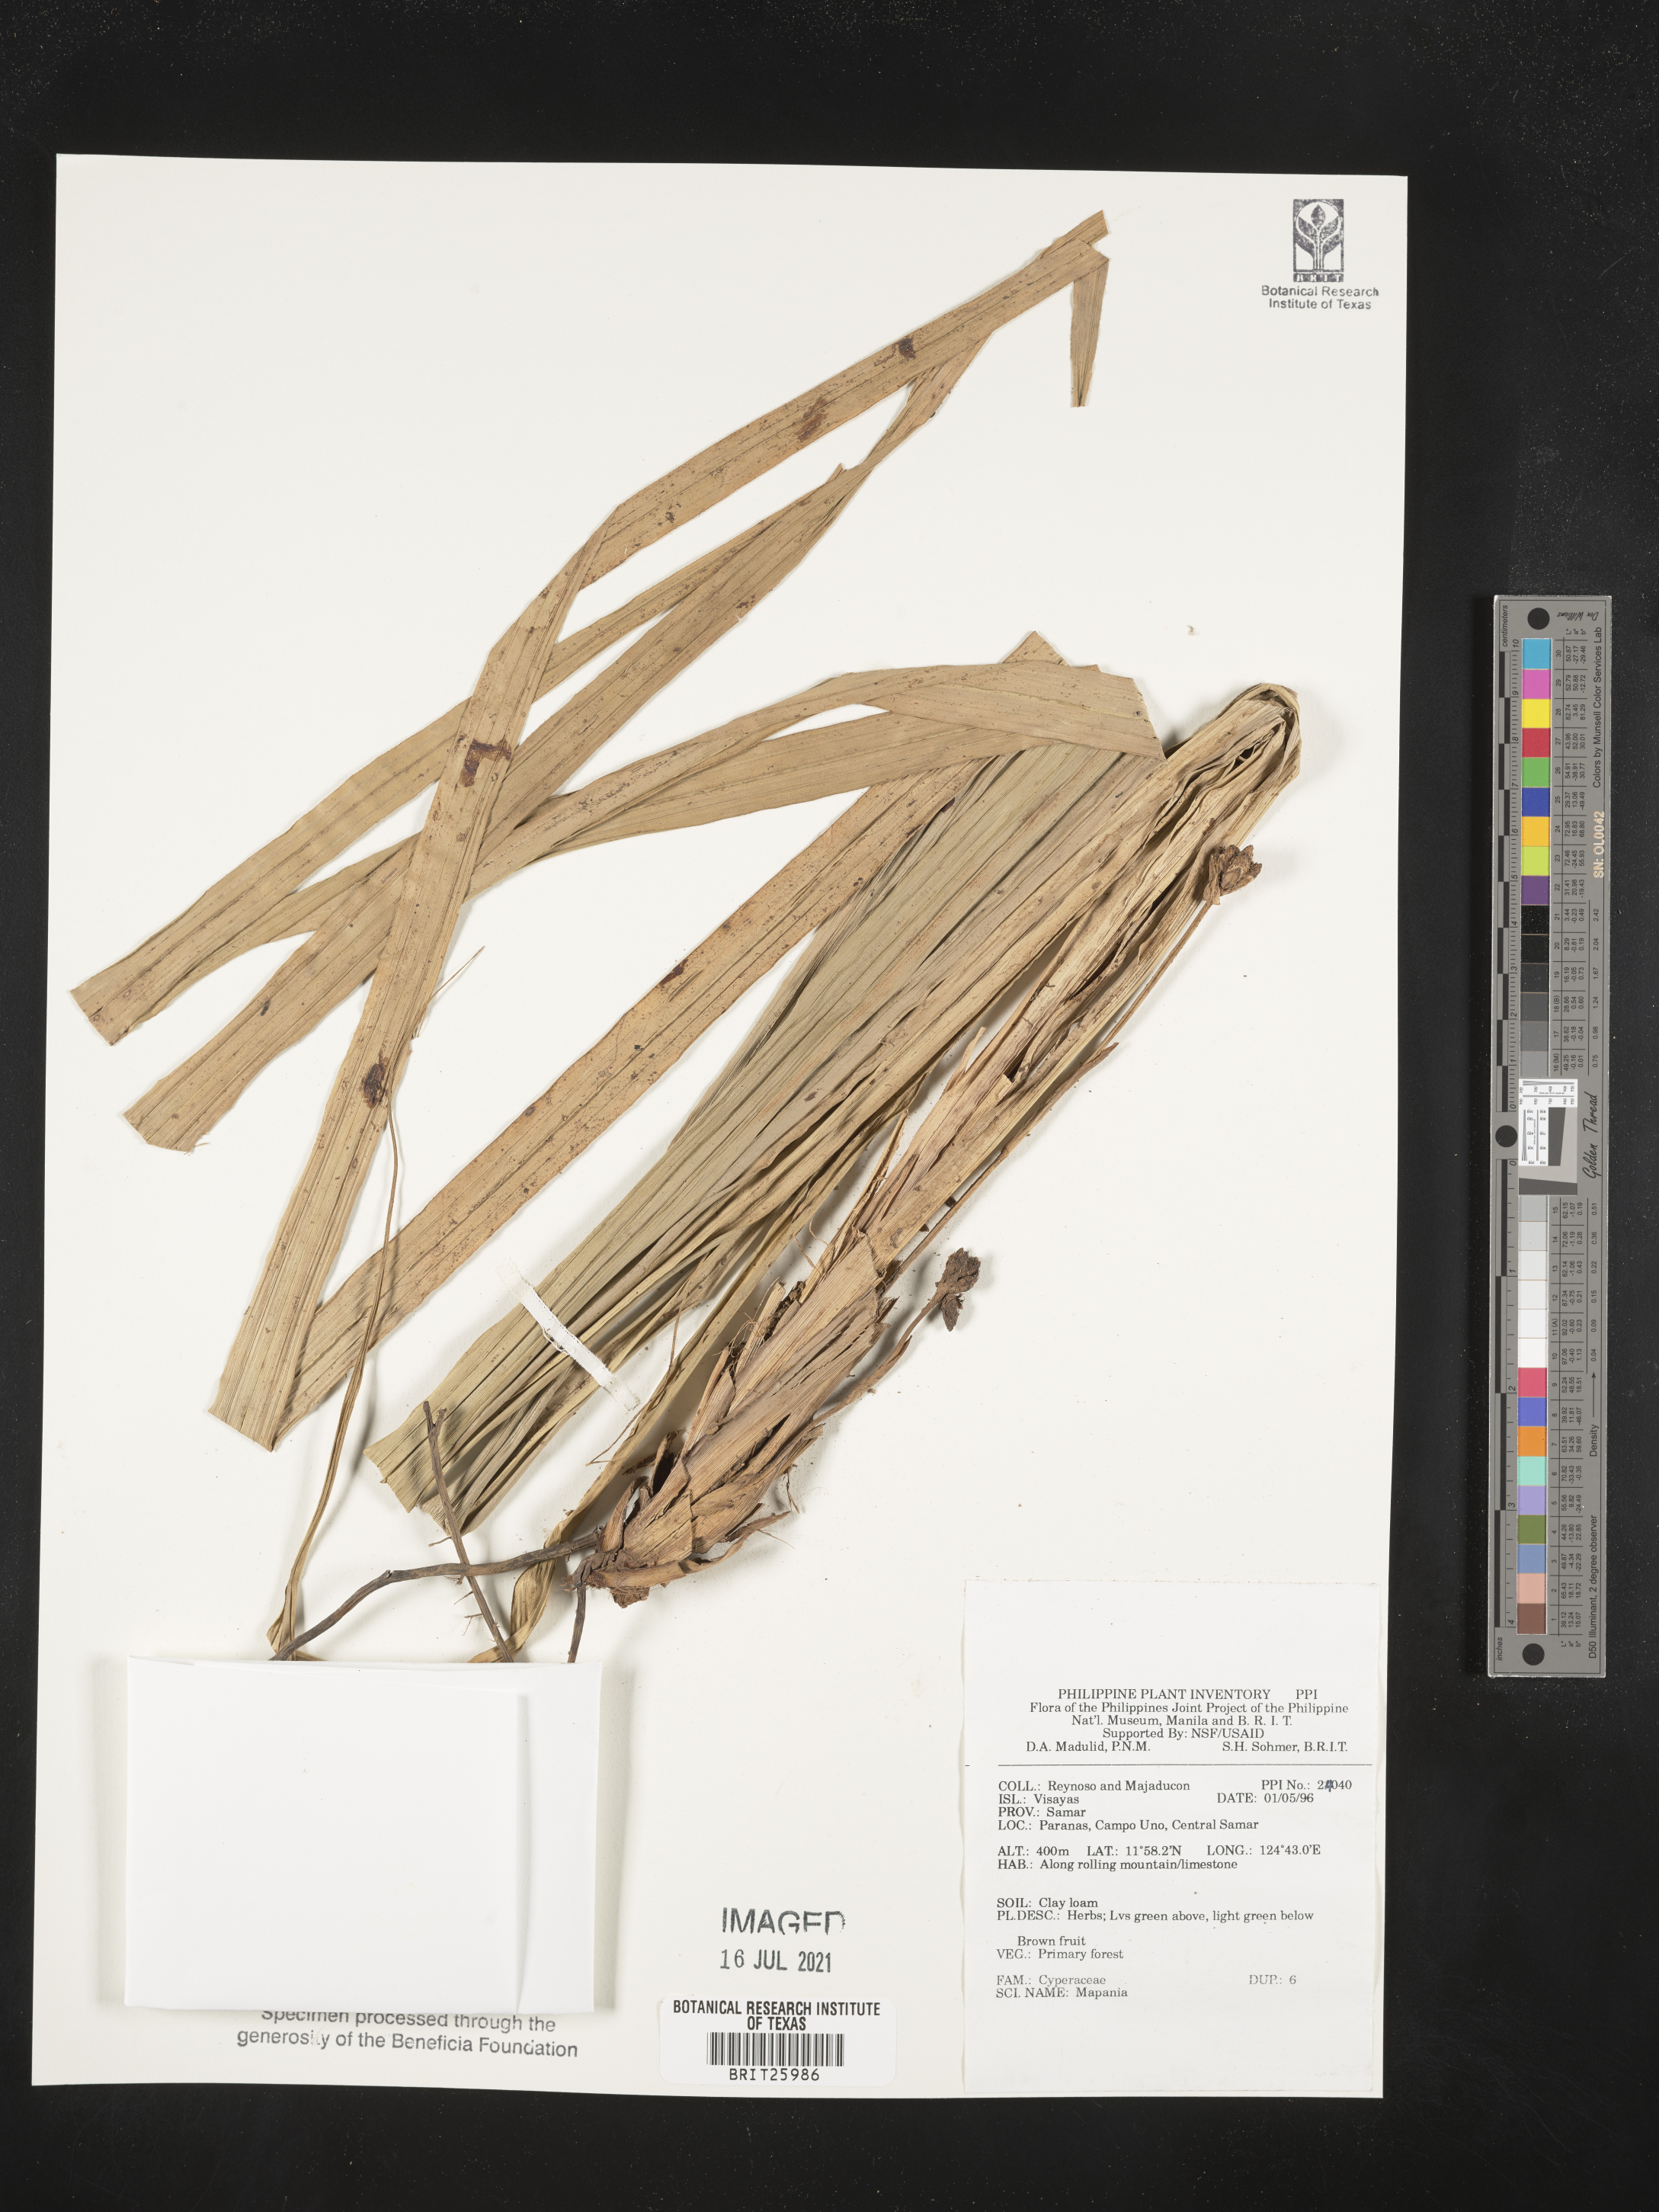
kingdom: Plantae
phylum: Tracheophyta
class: Liliopsida
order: Poales
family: Cyperaceae
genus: Mapania
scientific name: Mapania
